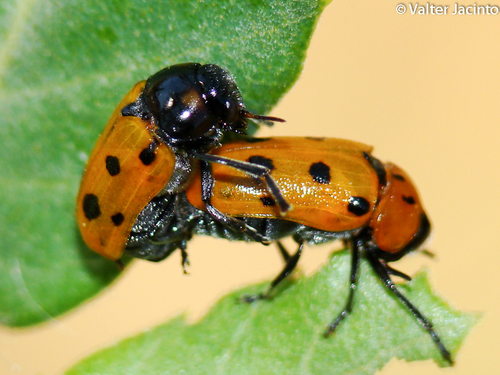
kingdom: Animalia
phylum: Arthropoda
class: Insecta
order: Coleoptera
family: Chrysomelidae
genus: Tituboea
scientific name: Tituboea biguttata
